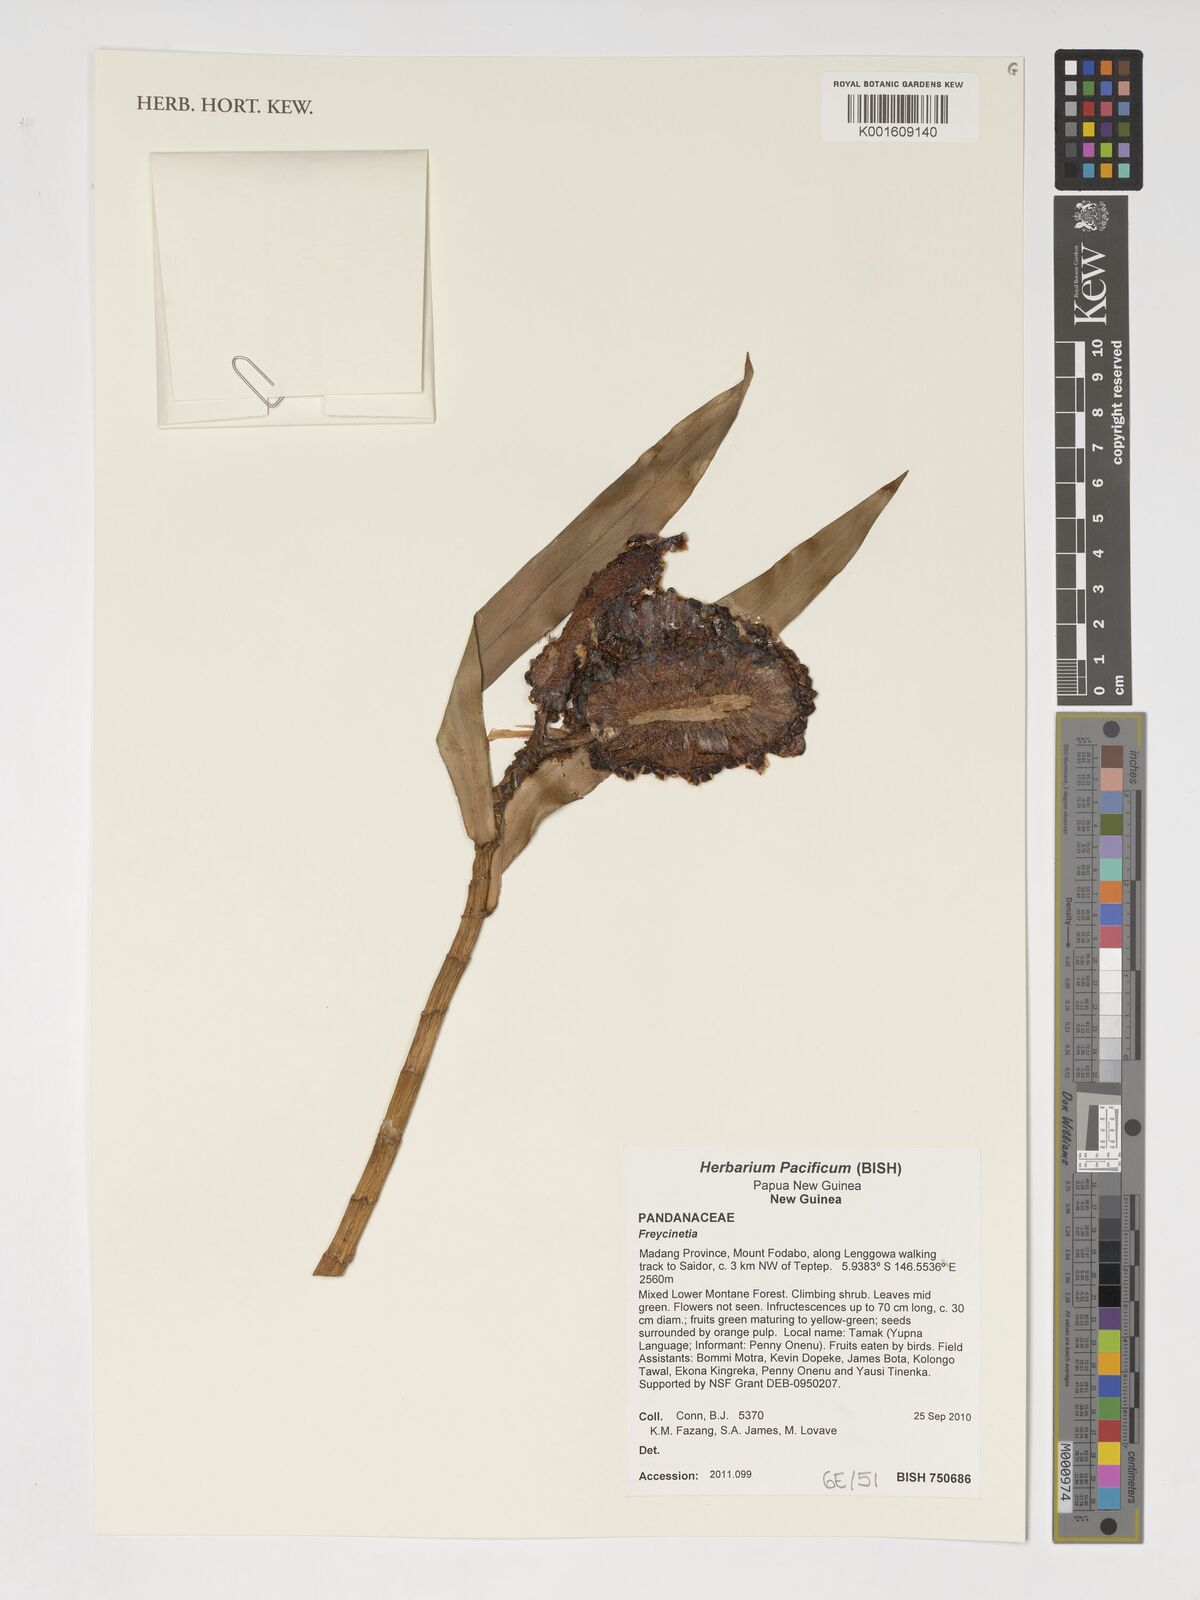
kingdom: Plantae
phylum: Tracheophyta
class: Liliopsida
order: Pandanales
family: Pandanaceae
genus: Freycinetia
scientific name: Freycinetia
